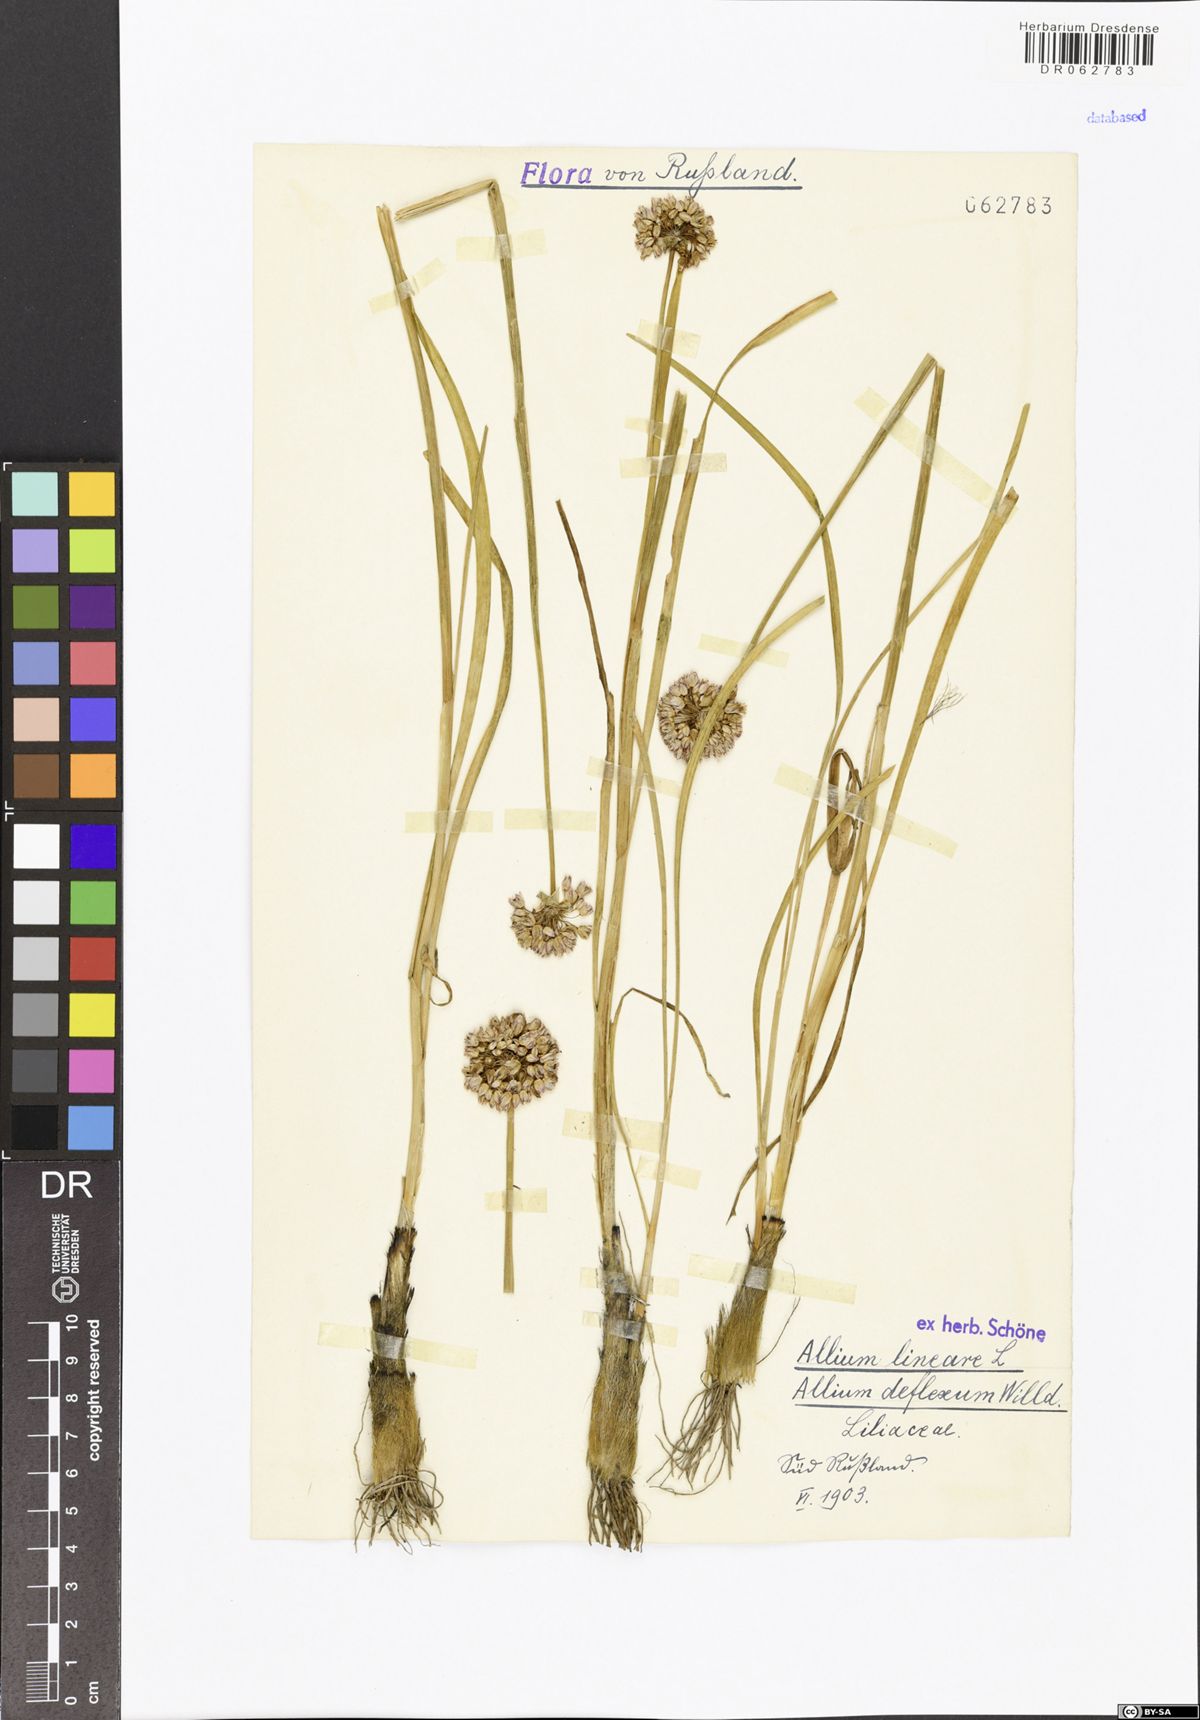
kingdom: Plantae
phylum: Tracheophyta
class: Liliopsida
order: Asparagales
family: Amaryllidaceae
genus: Allium
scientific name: Allium lineare
